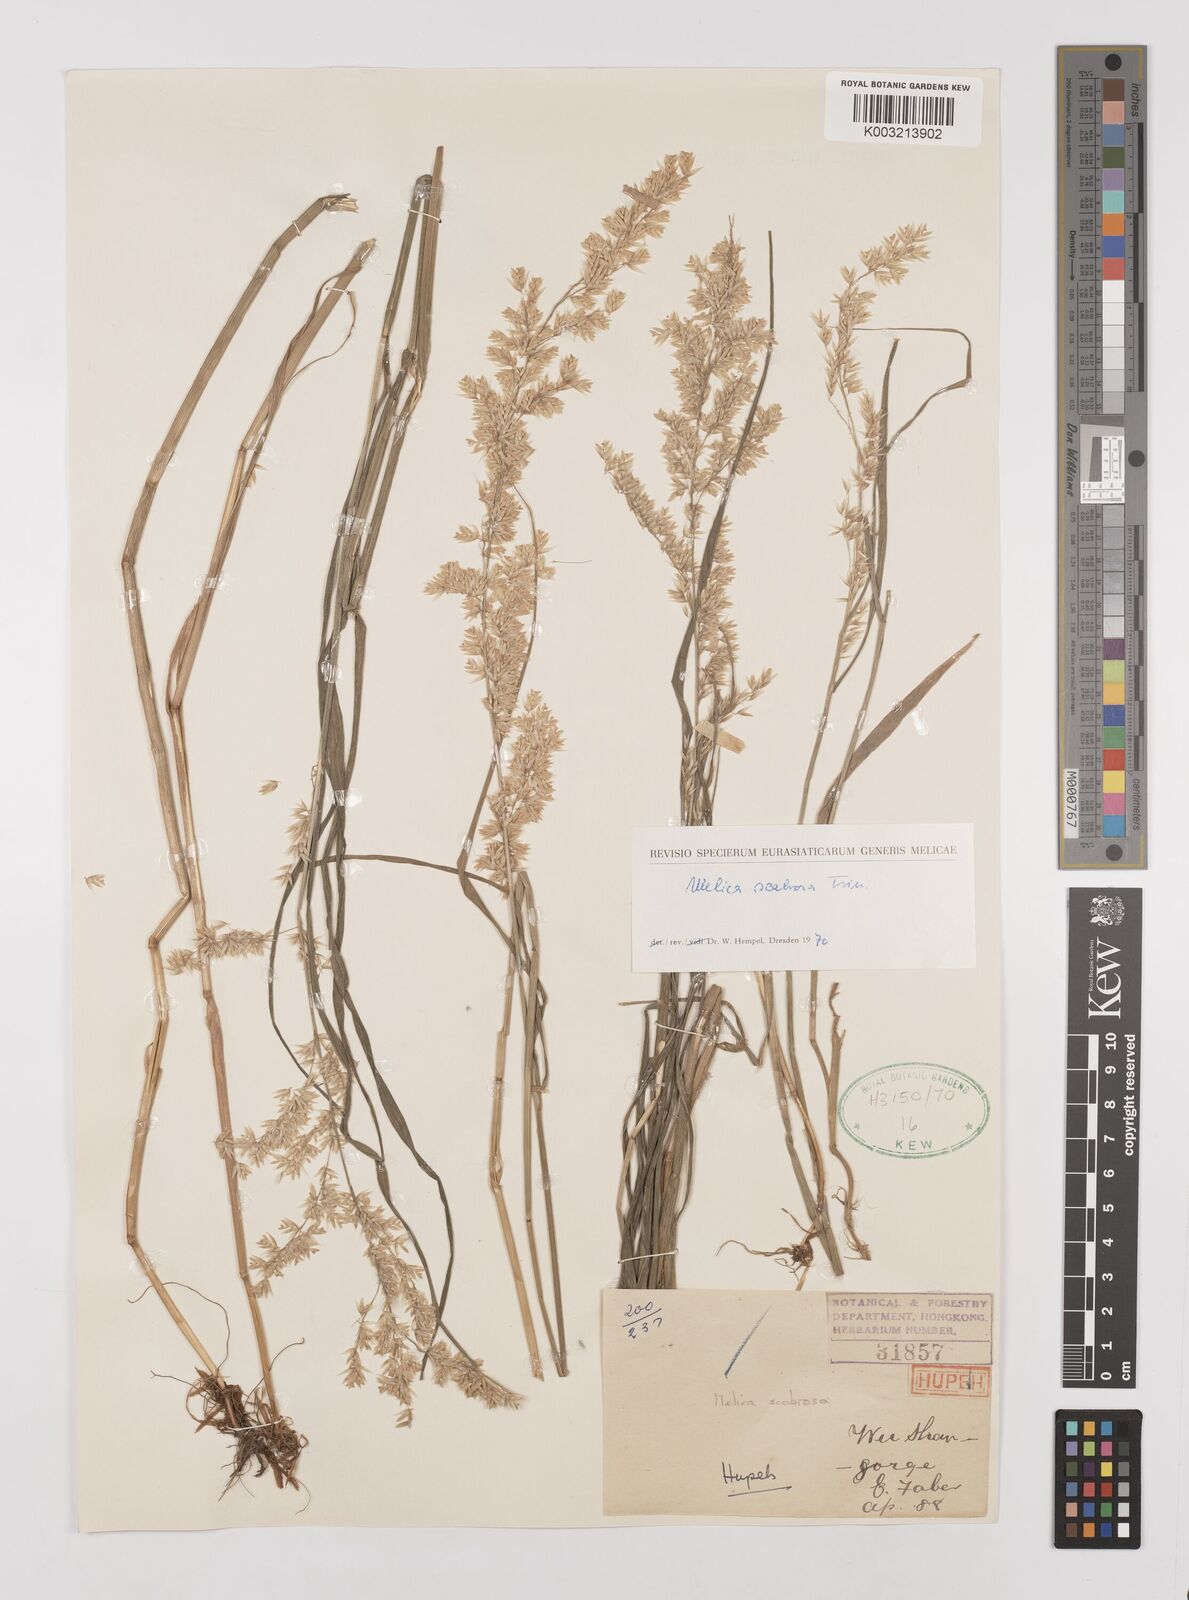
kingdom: Plantae
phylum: Tracheophyta
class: Liliopsida
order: Poales
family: Poaceae
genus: Melica
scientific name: Melica scabrosa
